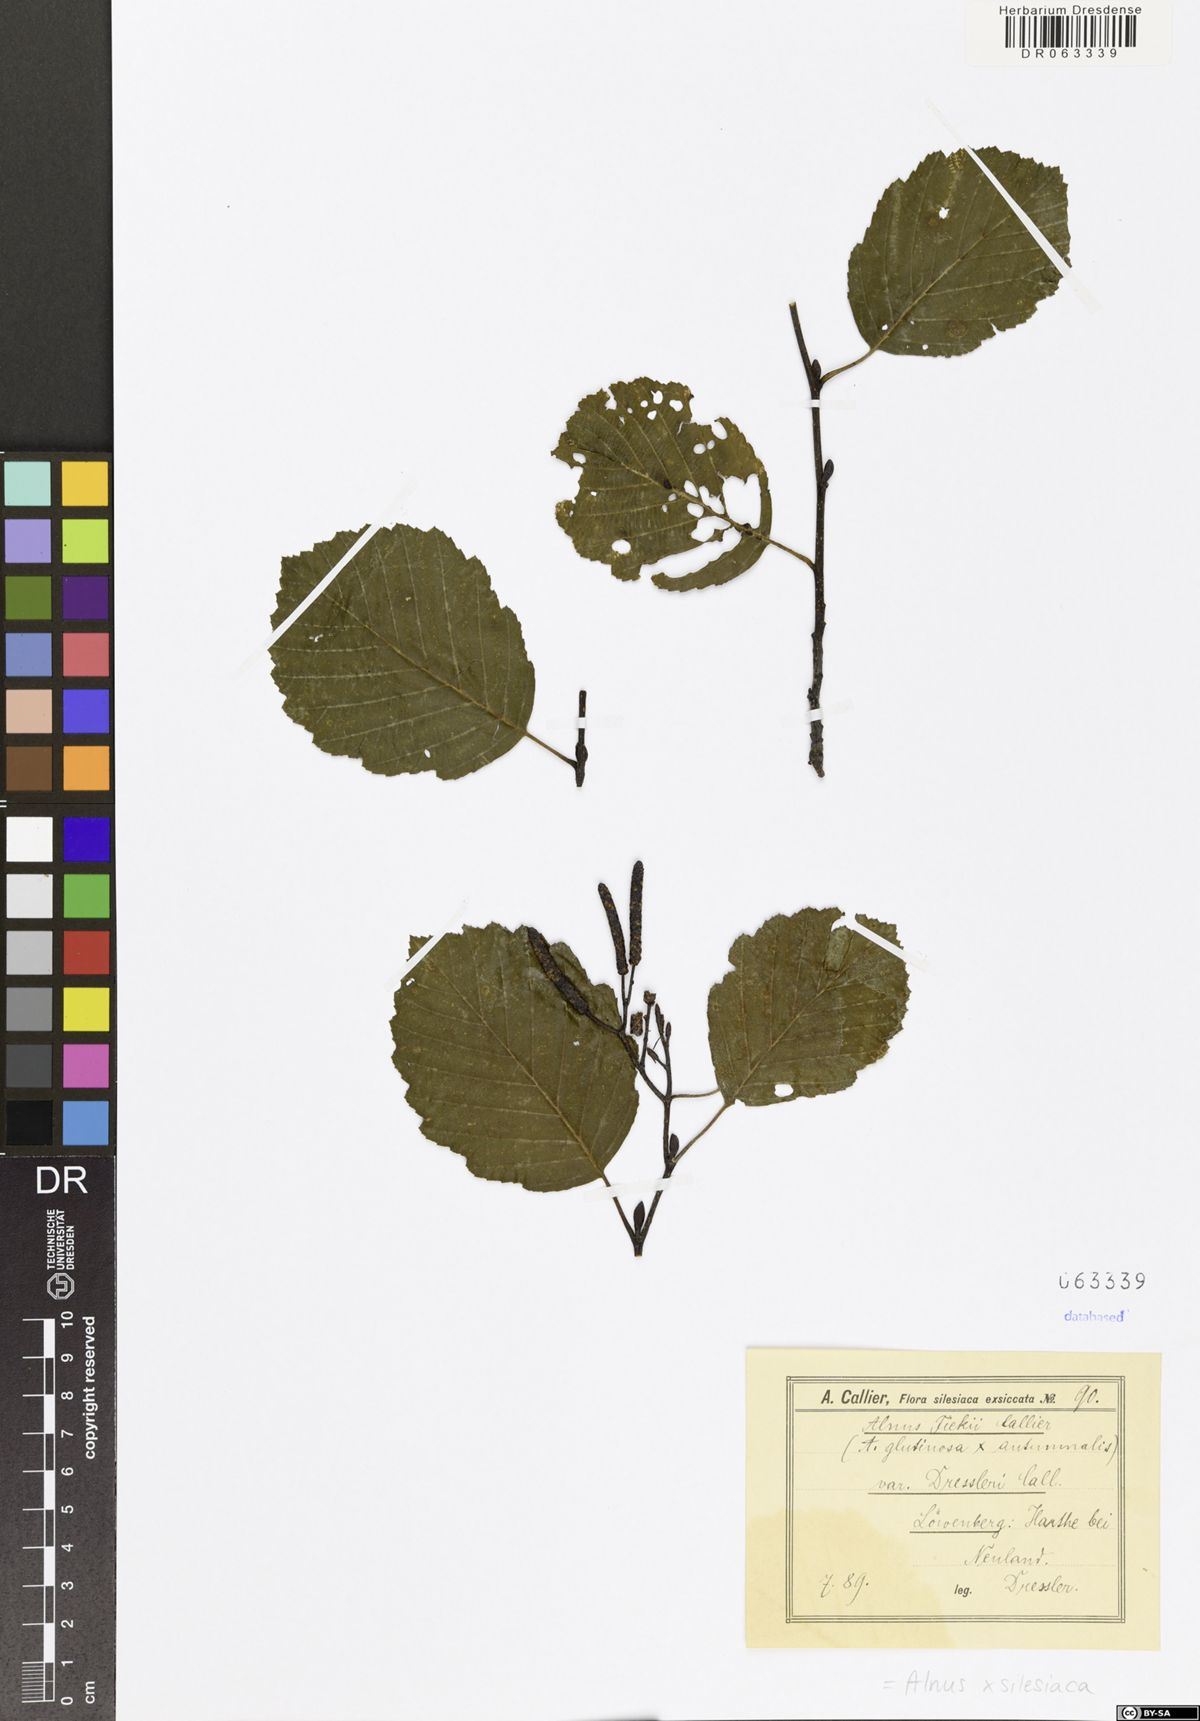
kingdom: Plantae
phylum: Tracheophyta
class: Magnoliopsida
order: Fagales
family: Betulaceae
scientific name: Betulaceae
